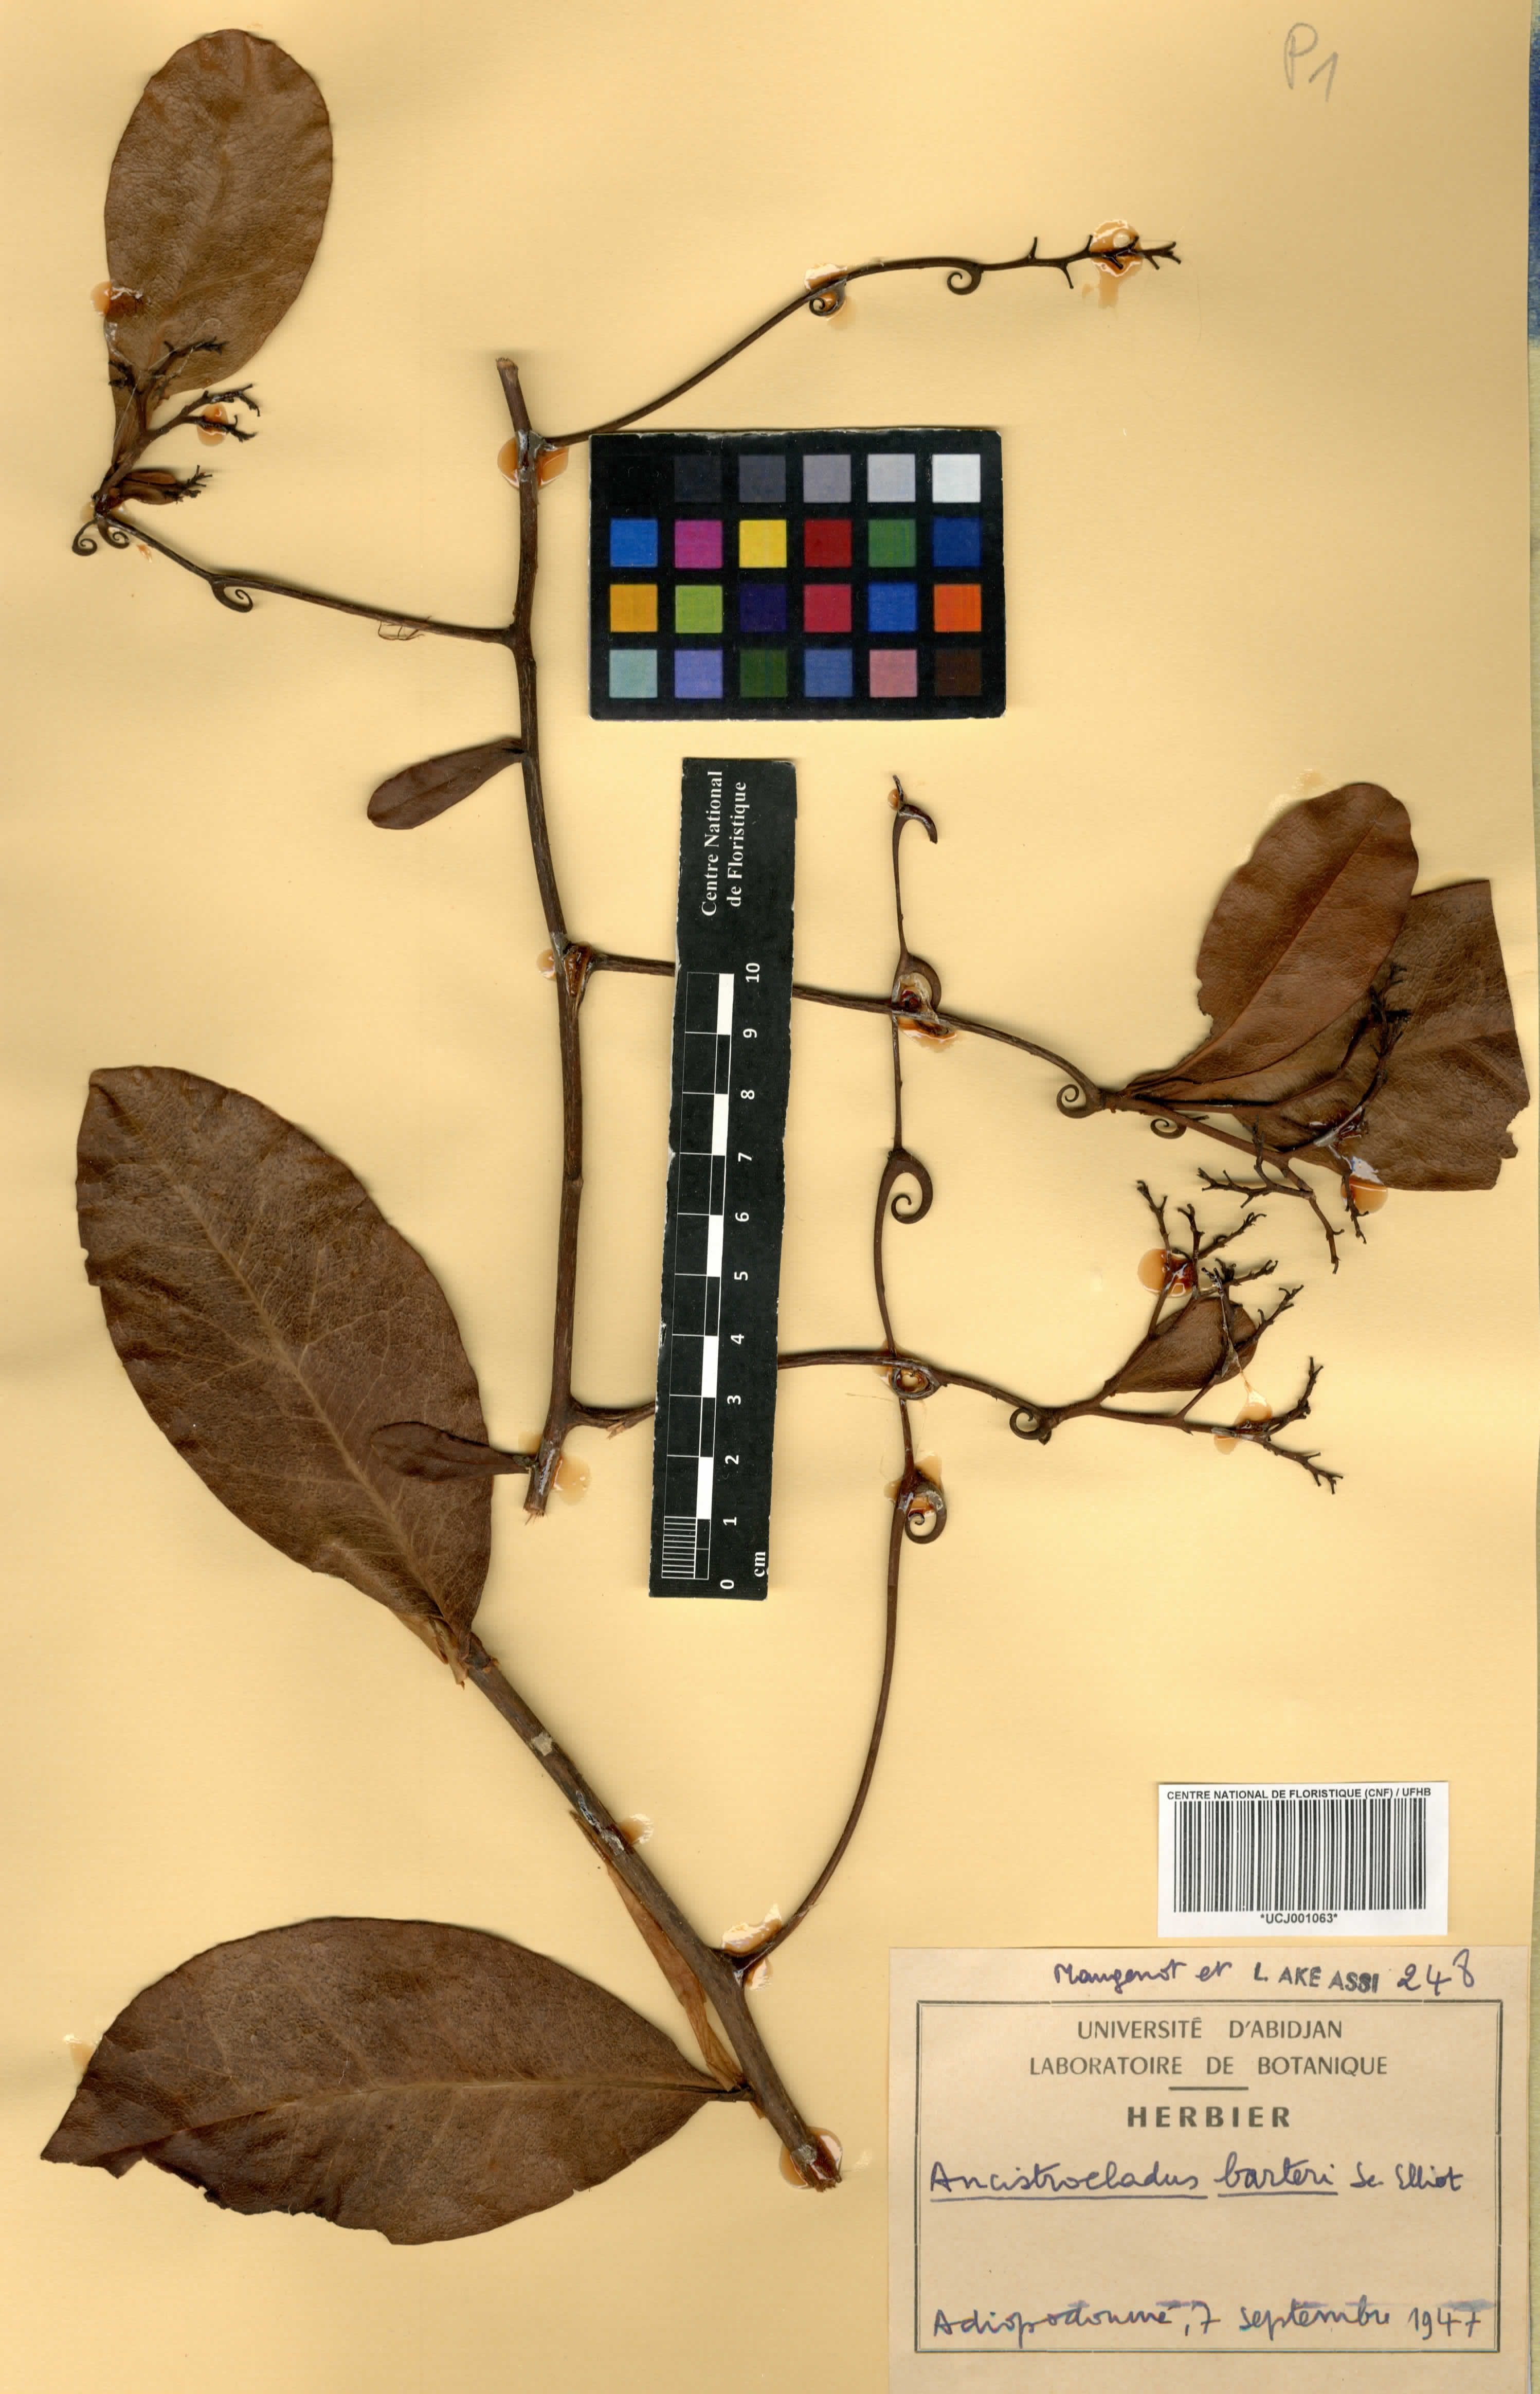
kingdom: Plantae
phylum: Tracheophyta
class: Magnoliopsida
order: Caryophyllales
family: Ancistrocladaceae
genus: Ancistrocladus
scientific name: Ancistrocladus barteri
